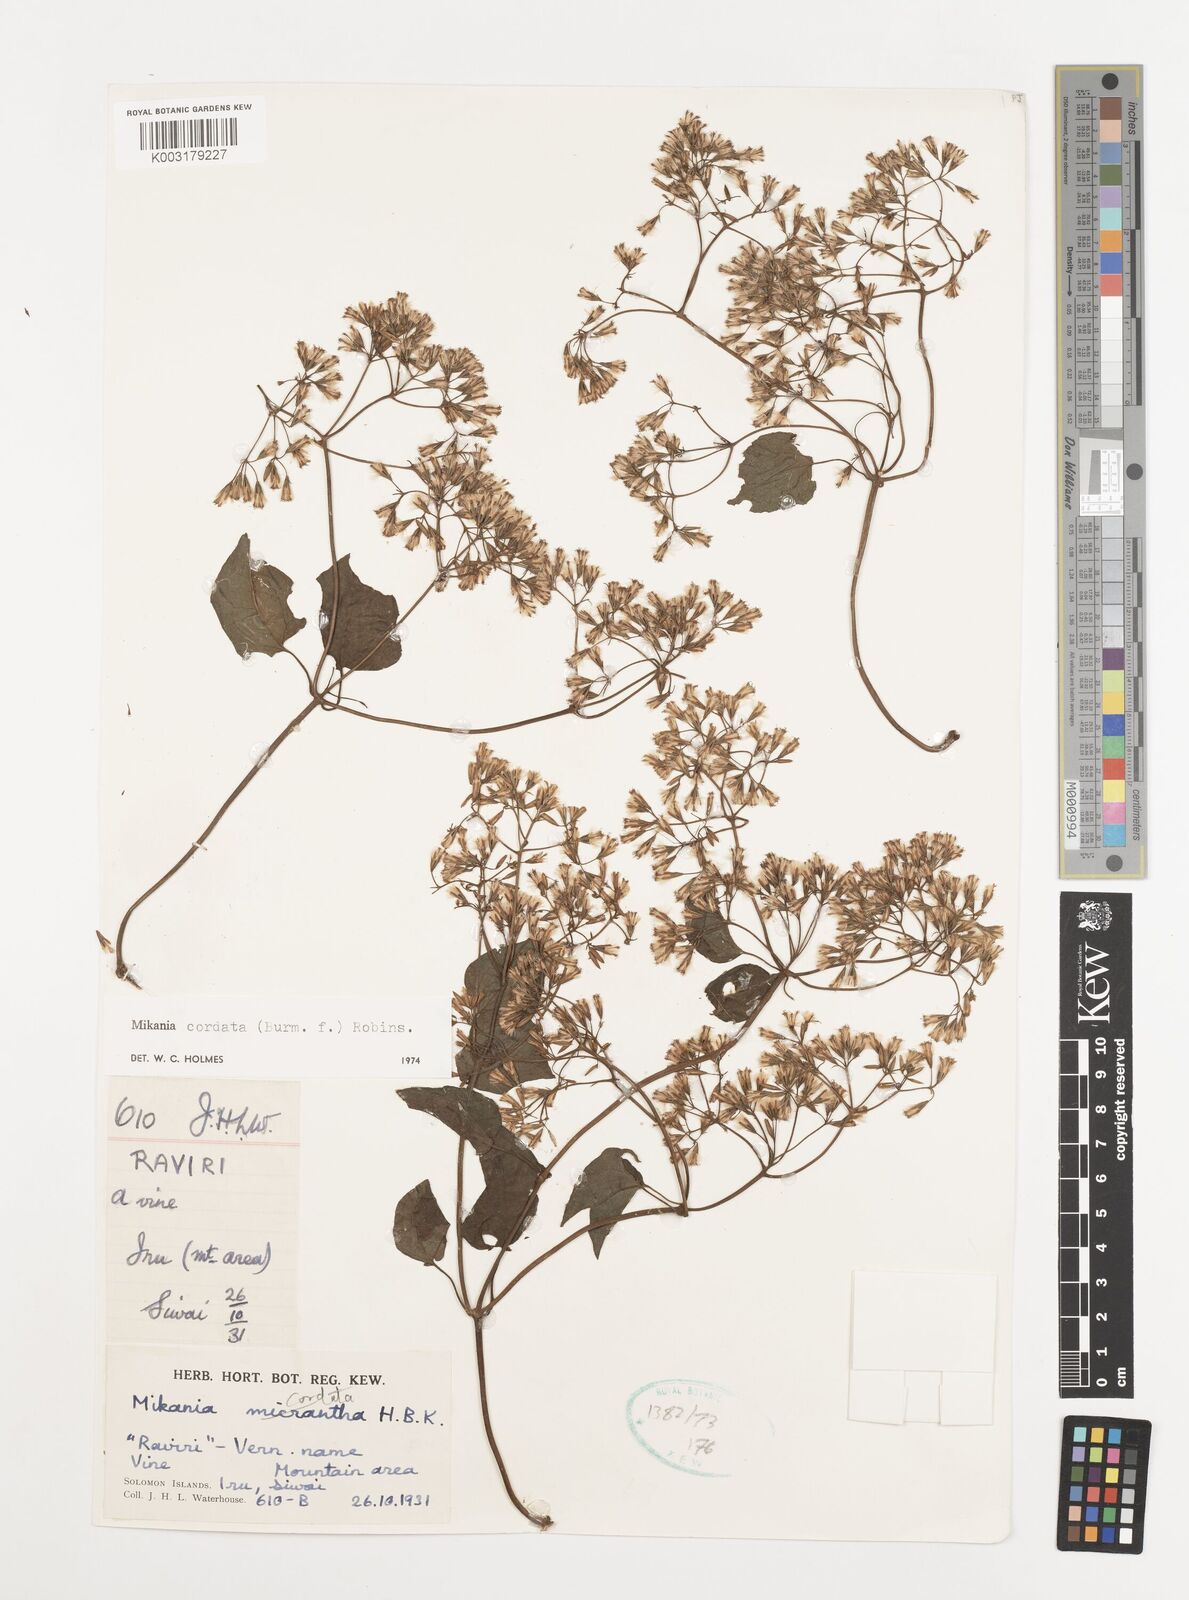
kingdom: Plantae
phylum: Tracheophyta
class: Magnoliopsida
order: Asterales
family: Asteraceae
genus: Mikania
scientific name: Mikania cordata
